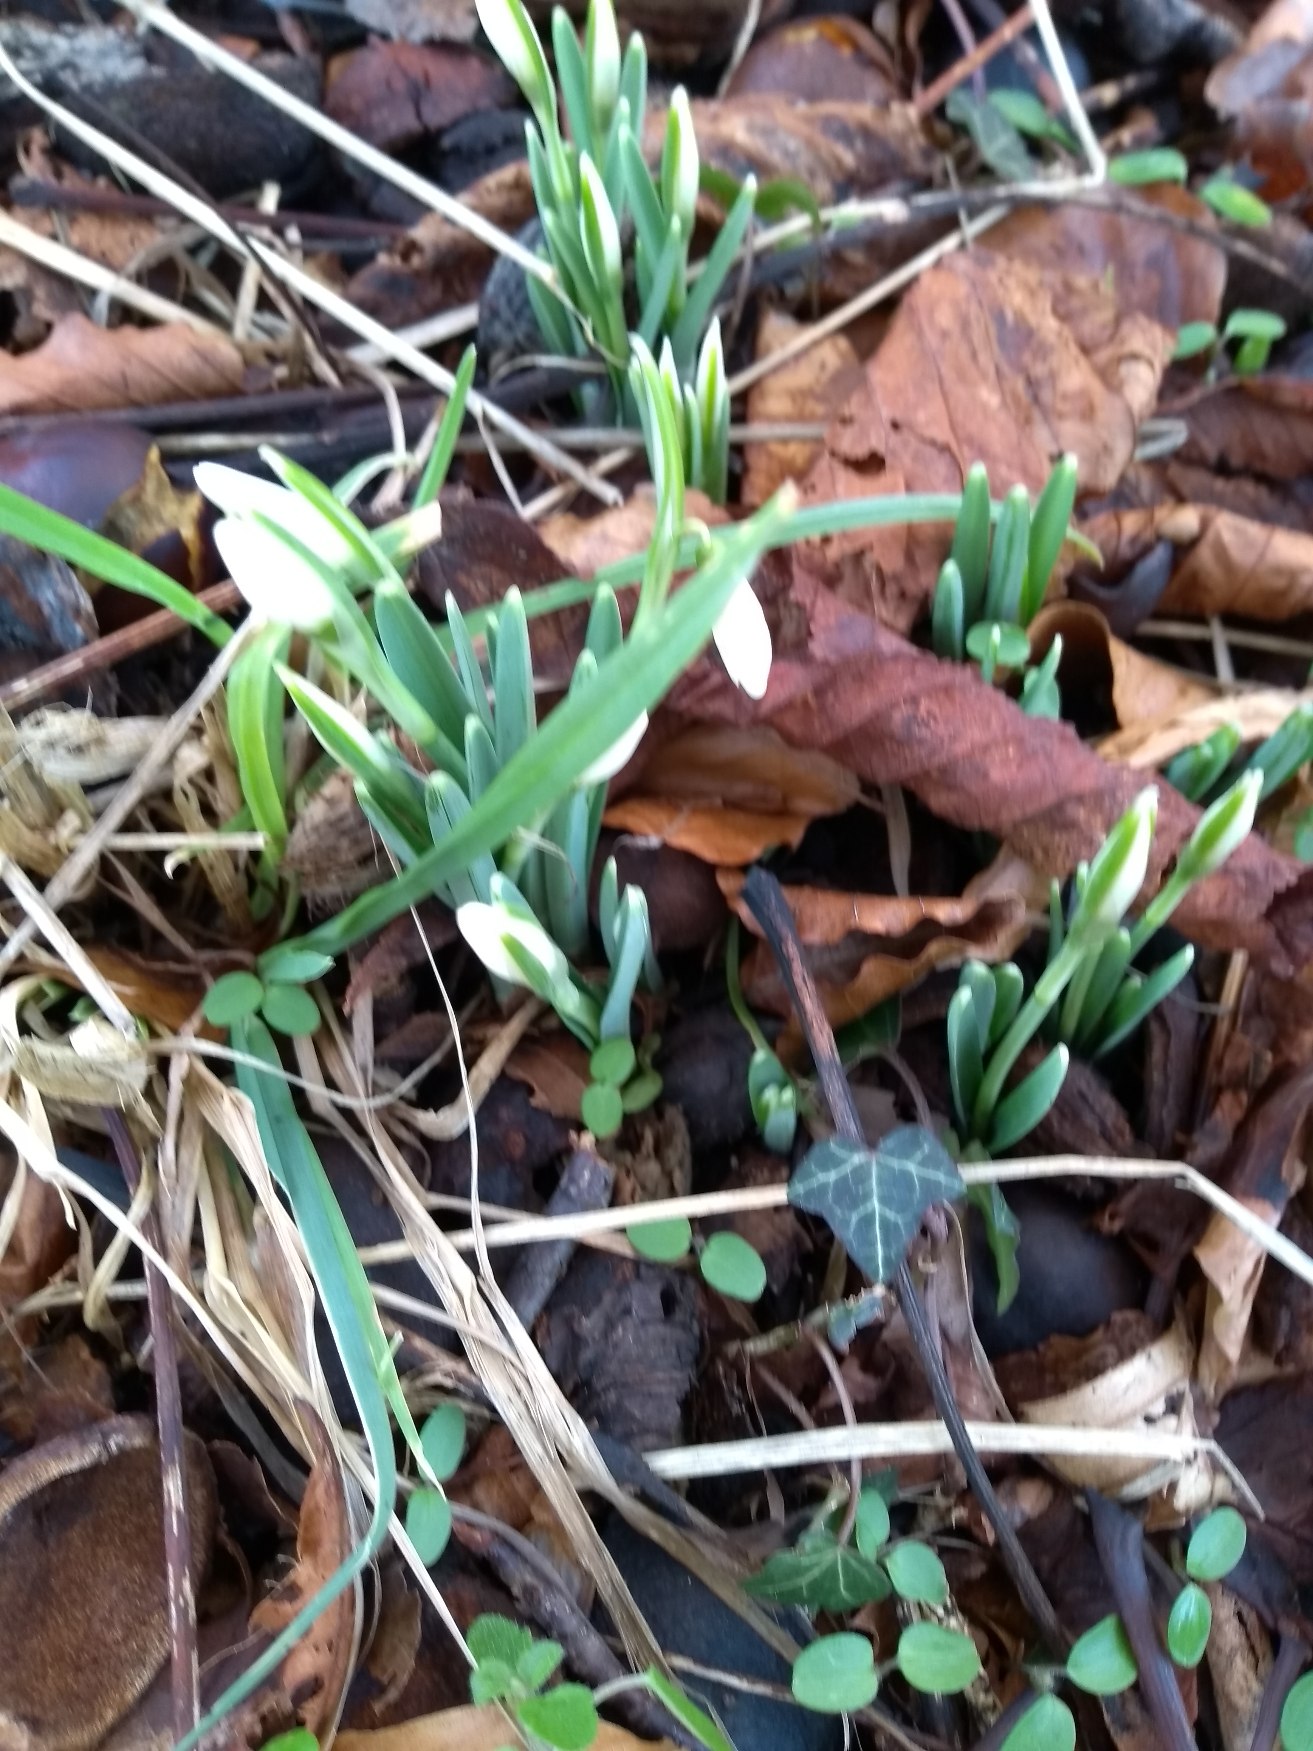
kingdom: Plantae
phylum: Tracheophyta
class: Liliopsida
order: Asparagales
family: Amaryllidaceae
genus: Galanthus
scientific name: Galanthus nivalis
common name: Vintergæk
